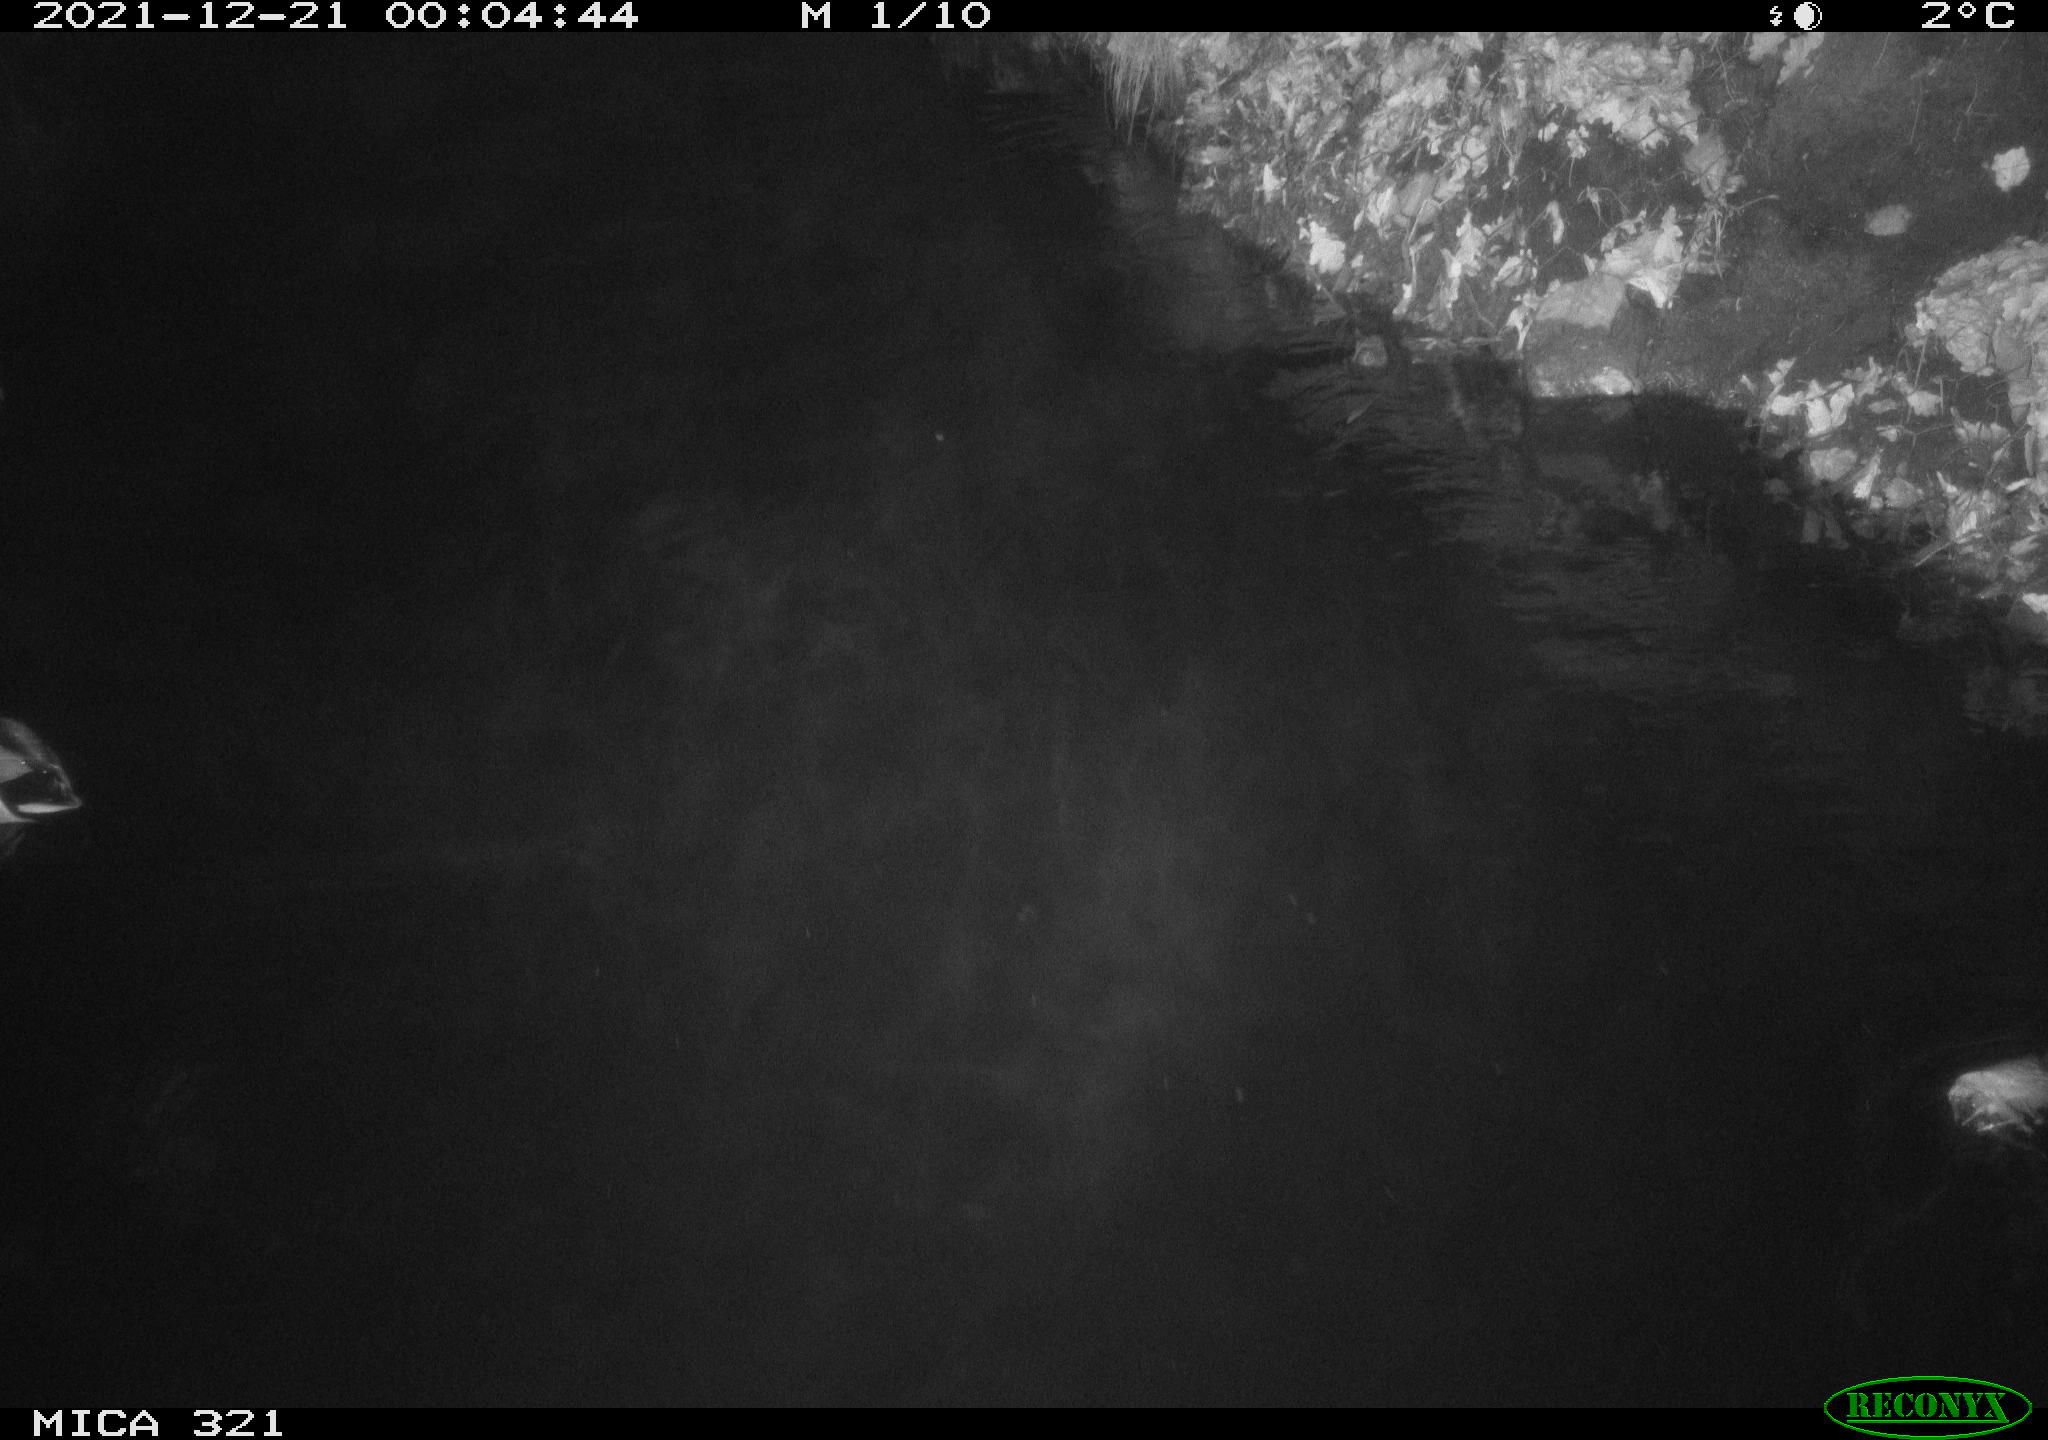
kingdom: Animalia
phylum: Chordata
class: Aves
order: Anseriformes
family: Anatidae
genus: Anas
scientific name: Anas platyrhynchos
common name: Mallard
